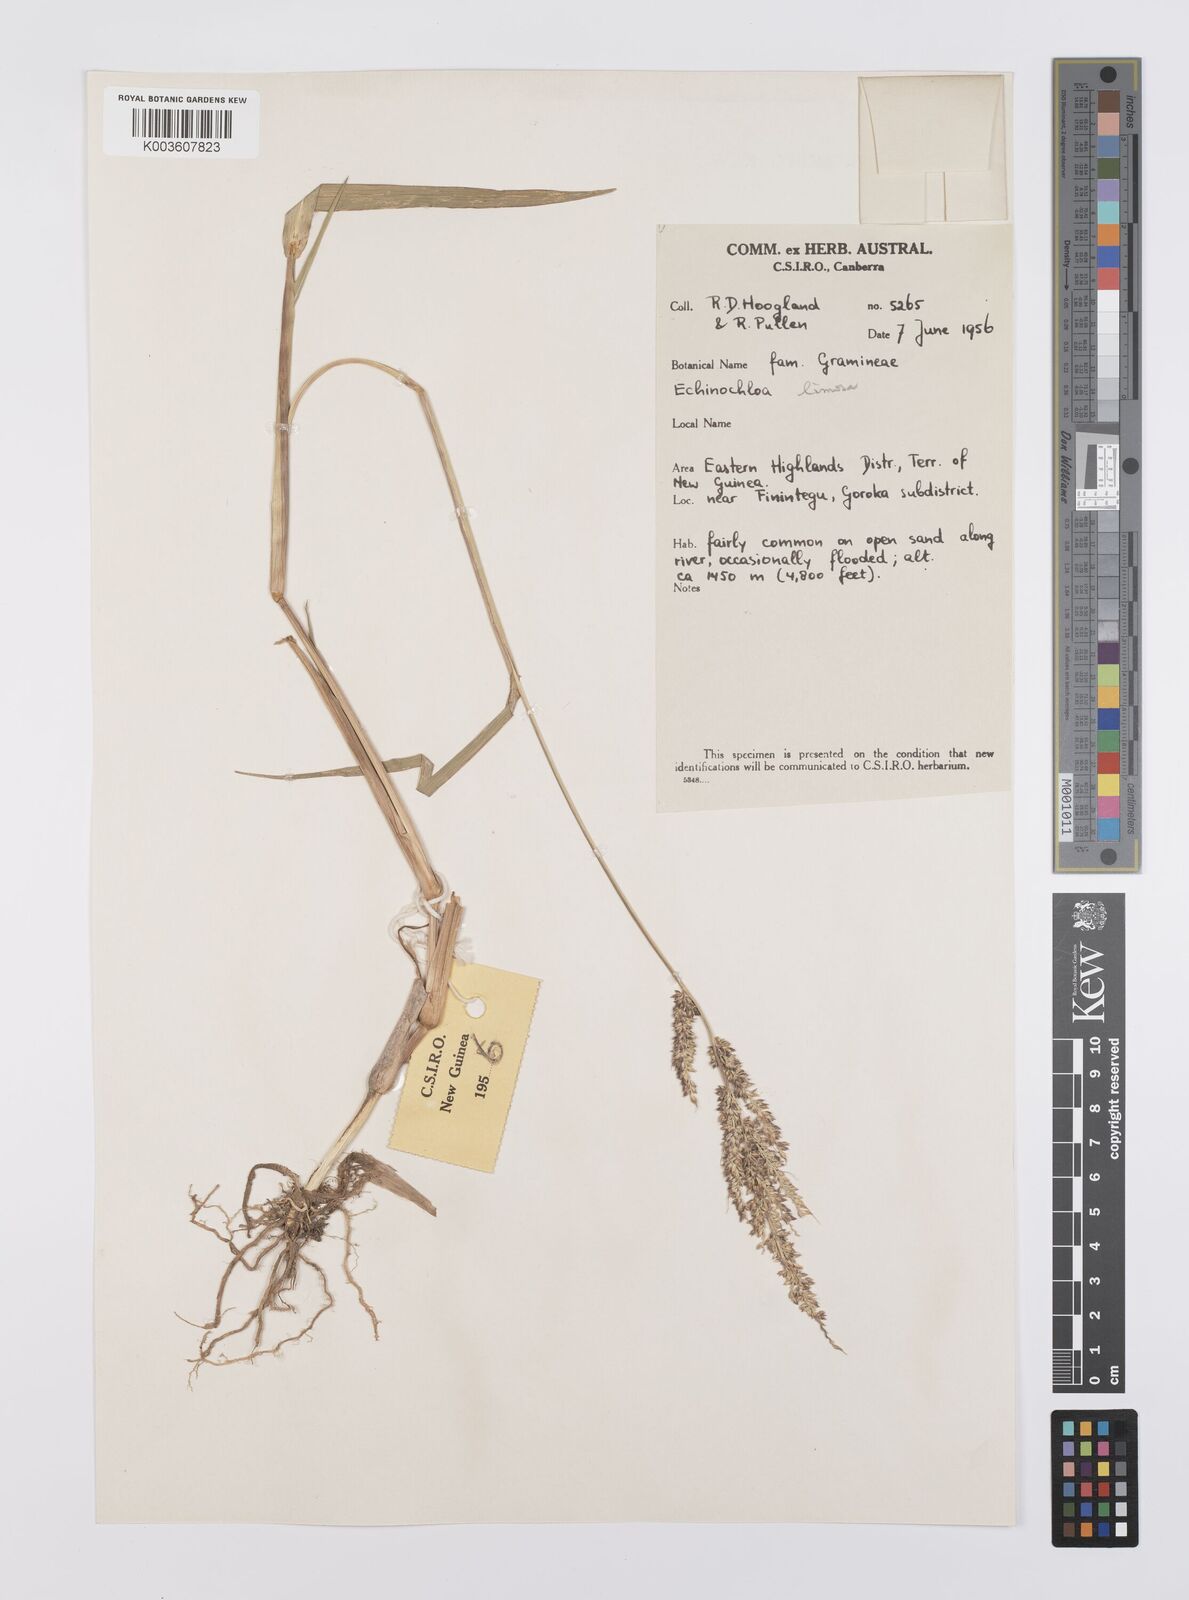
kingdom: Plantae
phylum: Tracheophyta
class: Liliopsida
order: Poales
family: Poaceae
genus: Echinochloa
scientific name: Echinochloa crus-galli
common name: Cockspur
